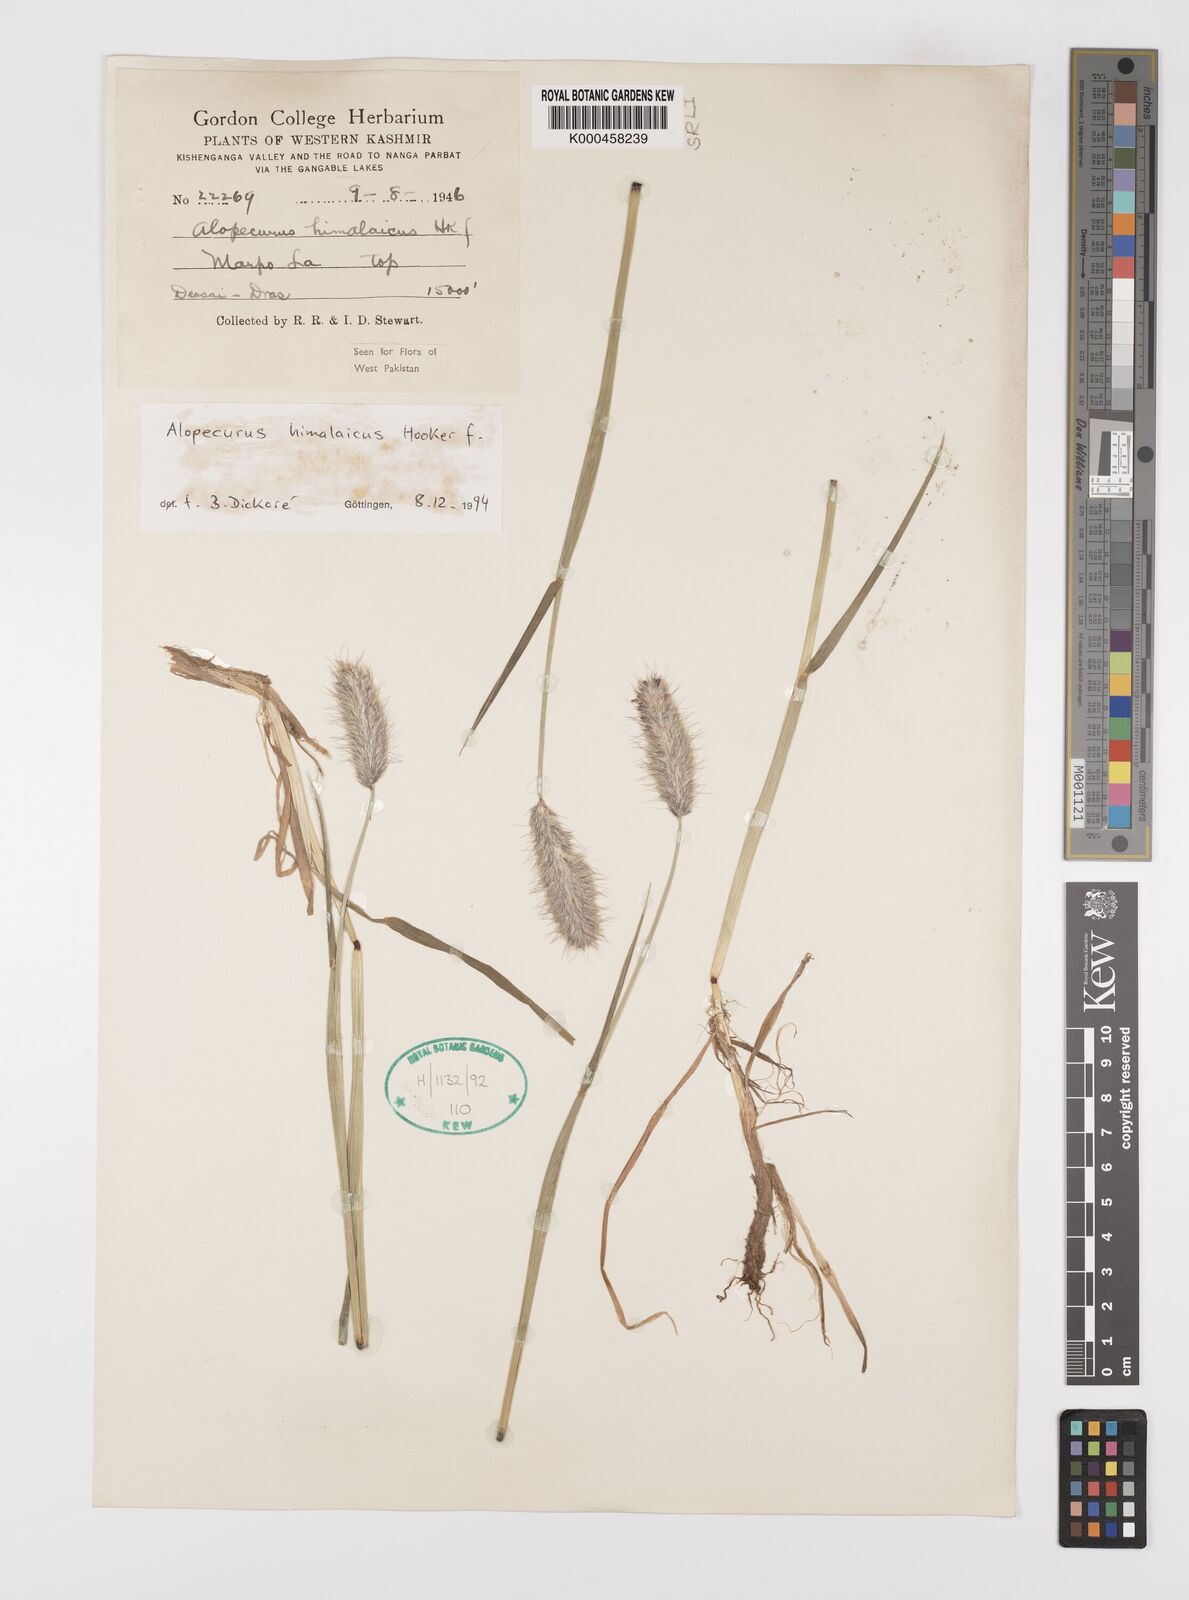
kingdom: Plantae
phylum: Tracheophyta
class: Liliopsida
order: Poales
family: Poaceae
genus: Alopecurus
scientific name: Alopecurus himalaicus
